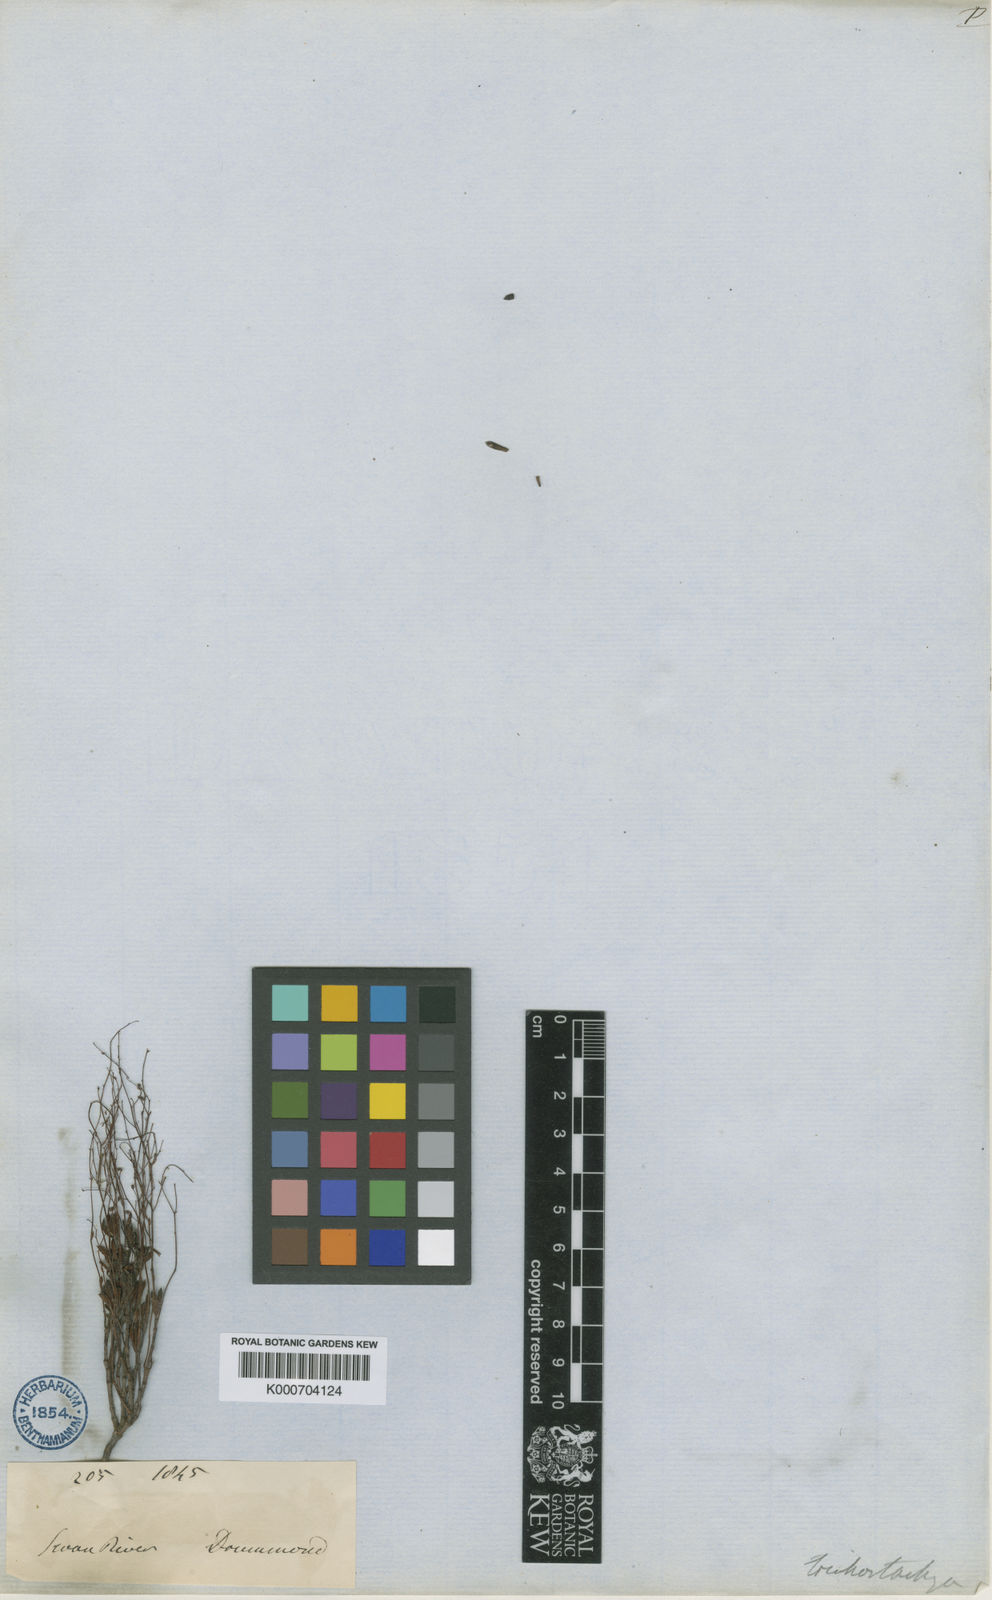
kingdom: Plantae
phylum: Tracheophyta
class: Magnoliopsida
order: Saxifragales
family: Haloragaceae
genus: Gonocarpus
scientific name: Gonocarpus trichostachyus
